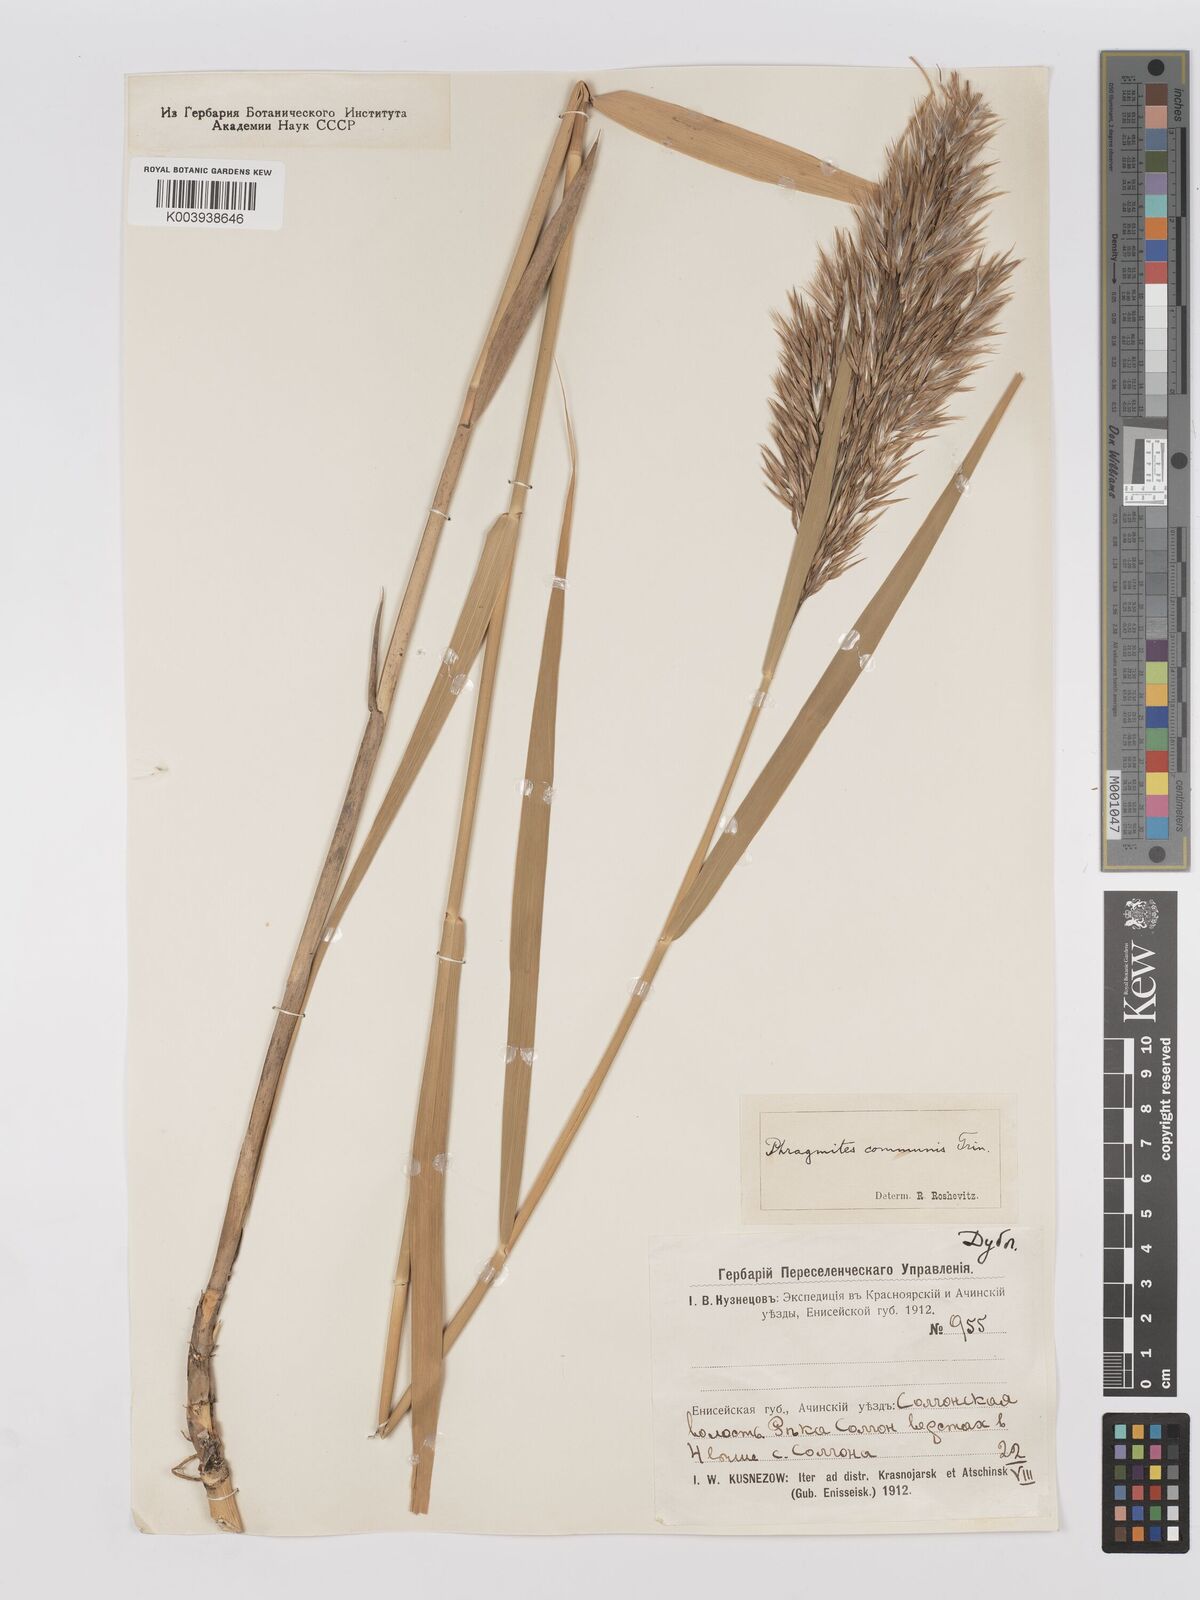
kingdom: Plantae
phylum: Tracheophyta
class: Liliopsida
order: Poales
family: Poaceae
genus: Phragmites
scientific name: Phragmites australis
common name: Common reed
